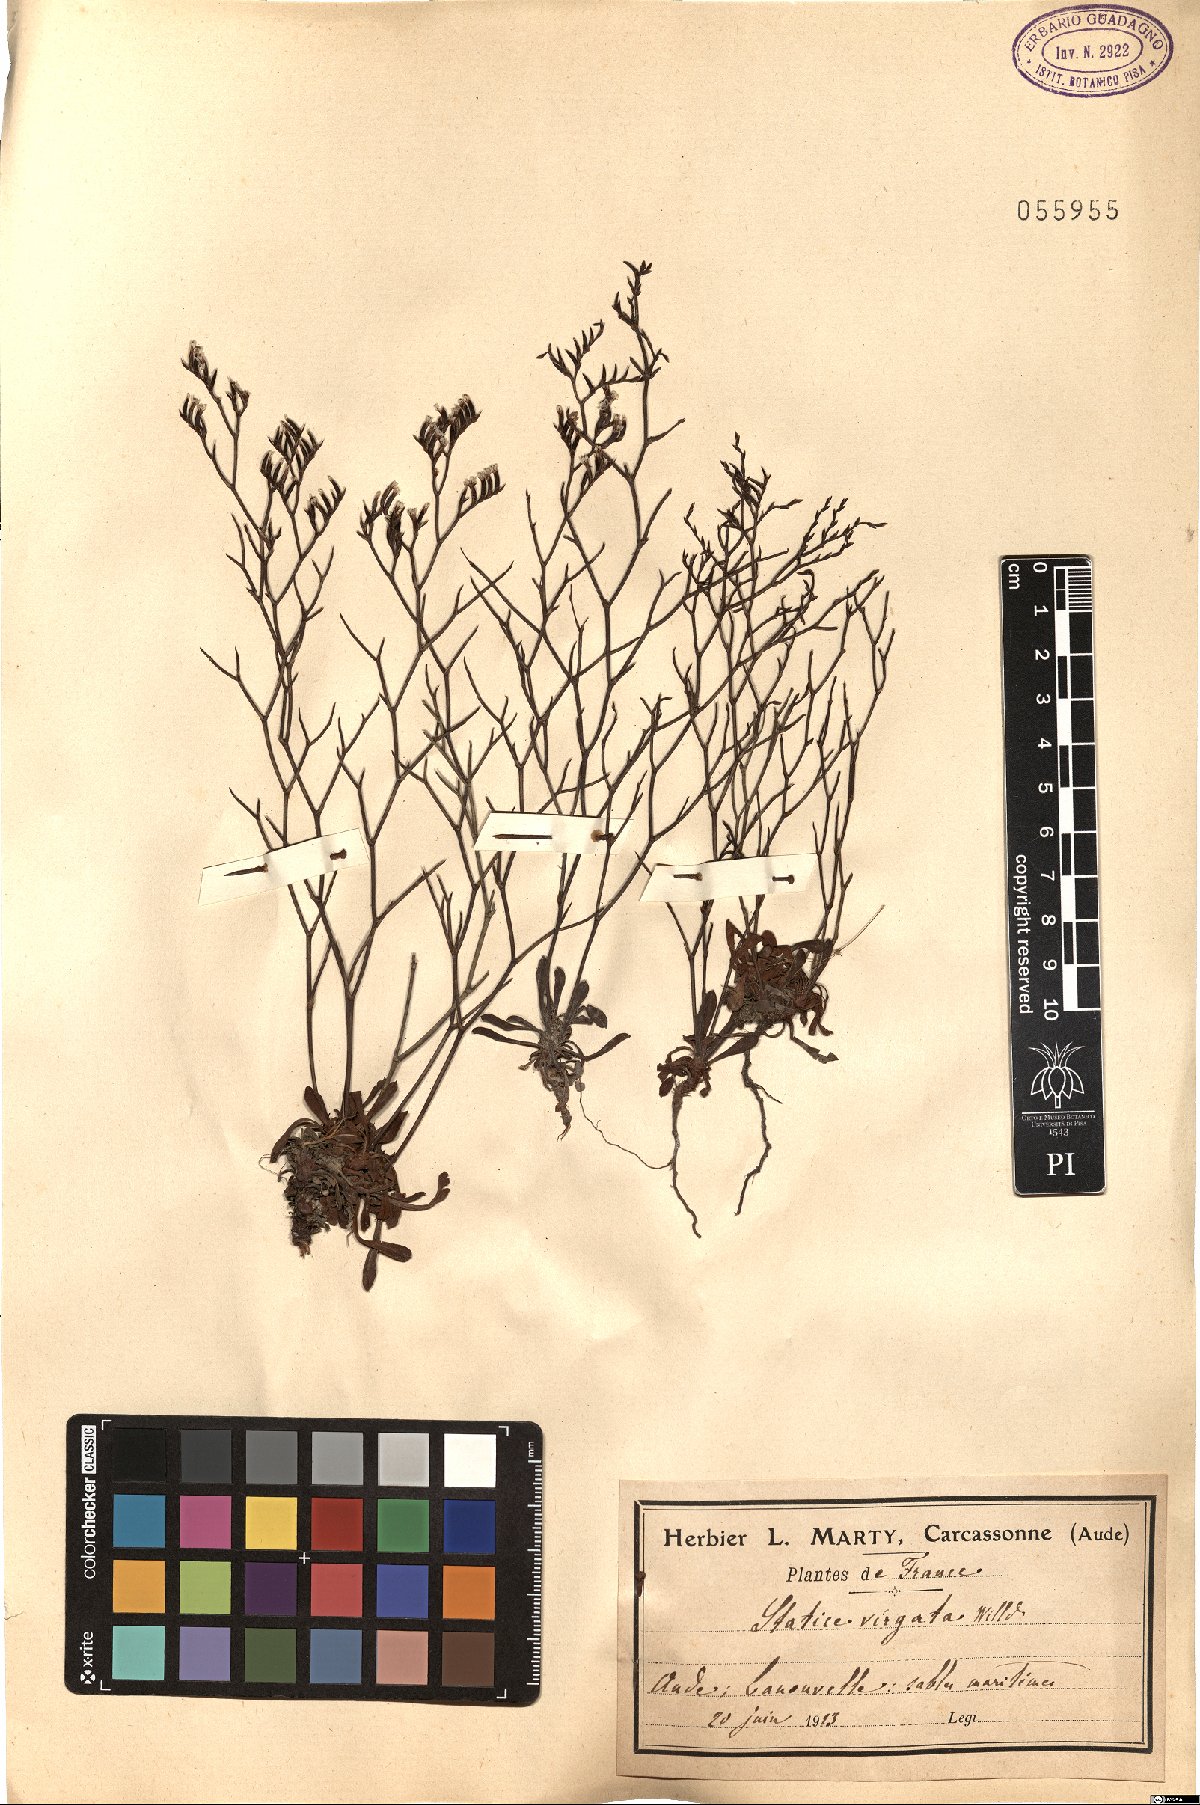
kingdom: Plantae
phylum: Tracheophyta
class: Magnoliopsida
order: Caryophyllales
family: Plumbaginaceae
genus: Limonium
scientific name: Limonium virgatum
